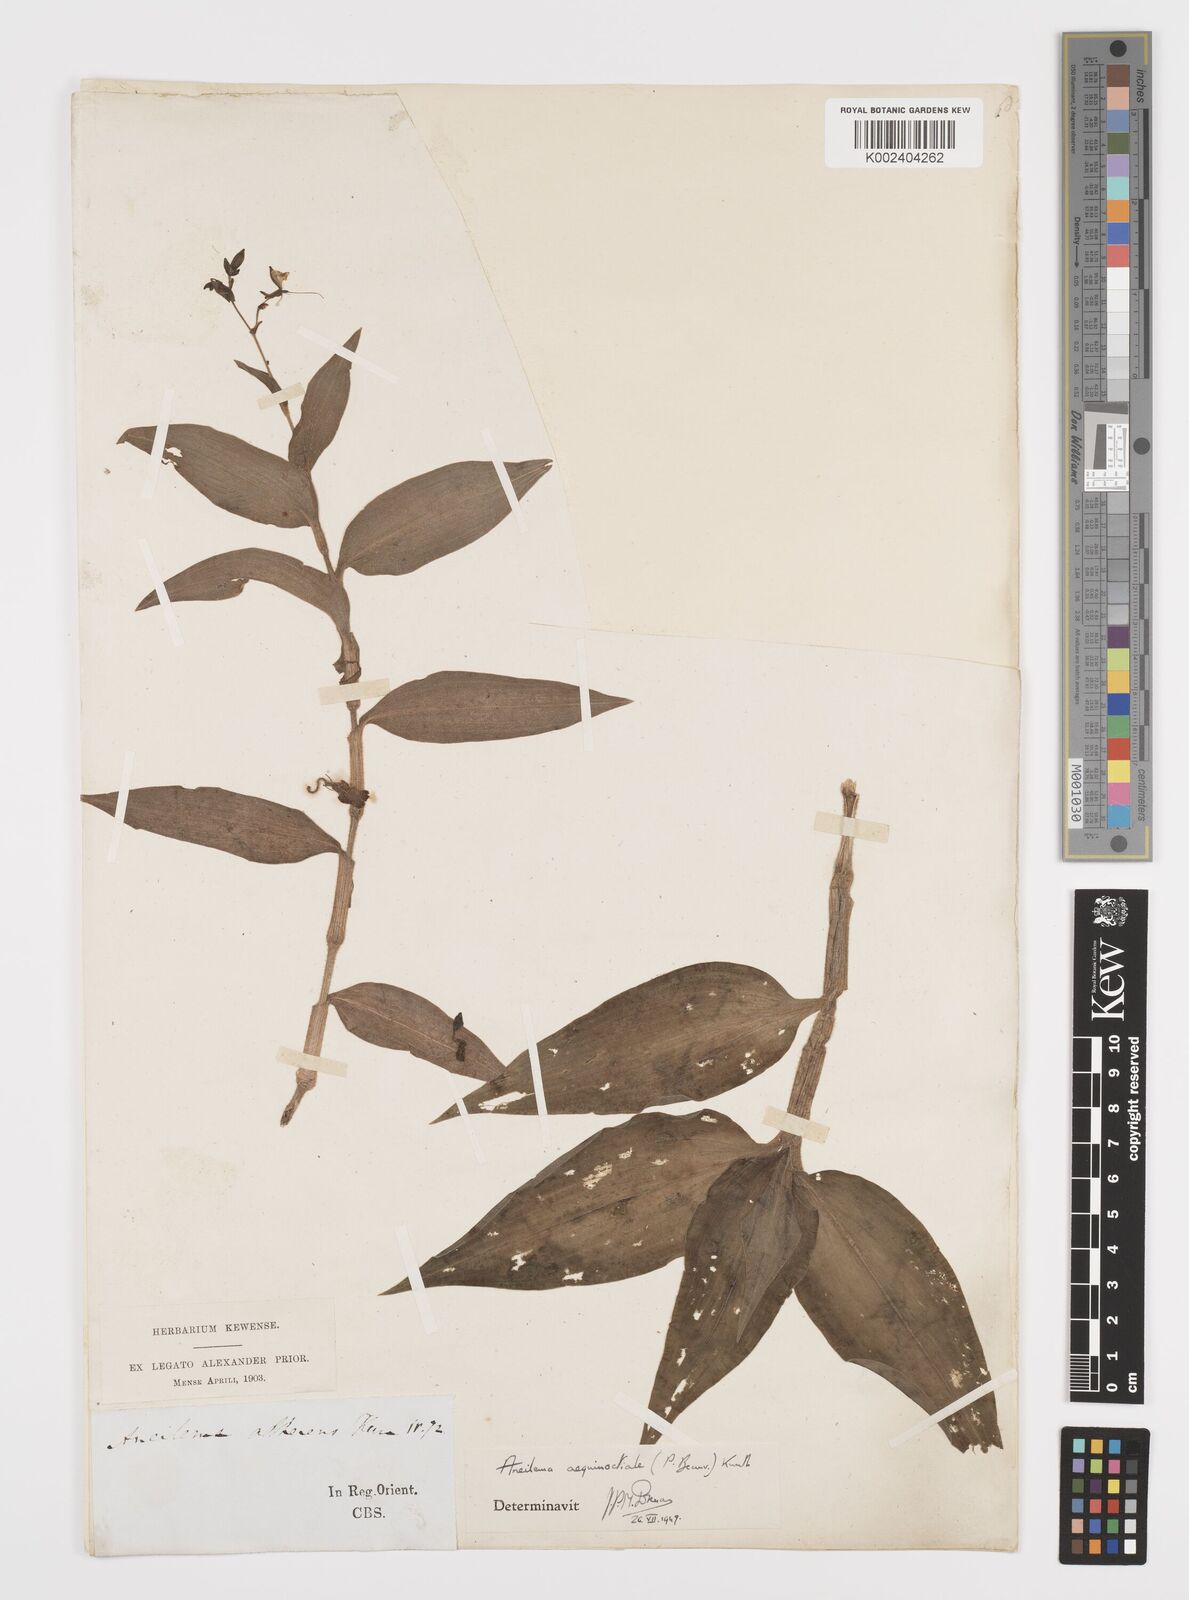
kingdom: Plantae
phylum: Tracheophyta
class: Liliopsida
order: Commelinales
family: Commelinaceae
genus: Aneilema
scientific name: Aneilema aequinoctiale
